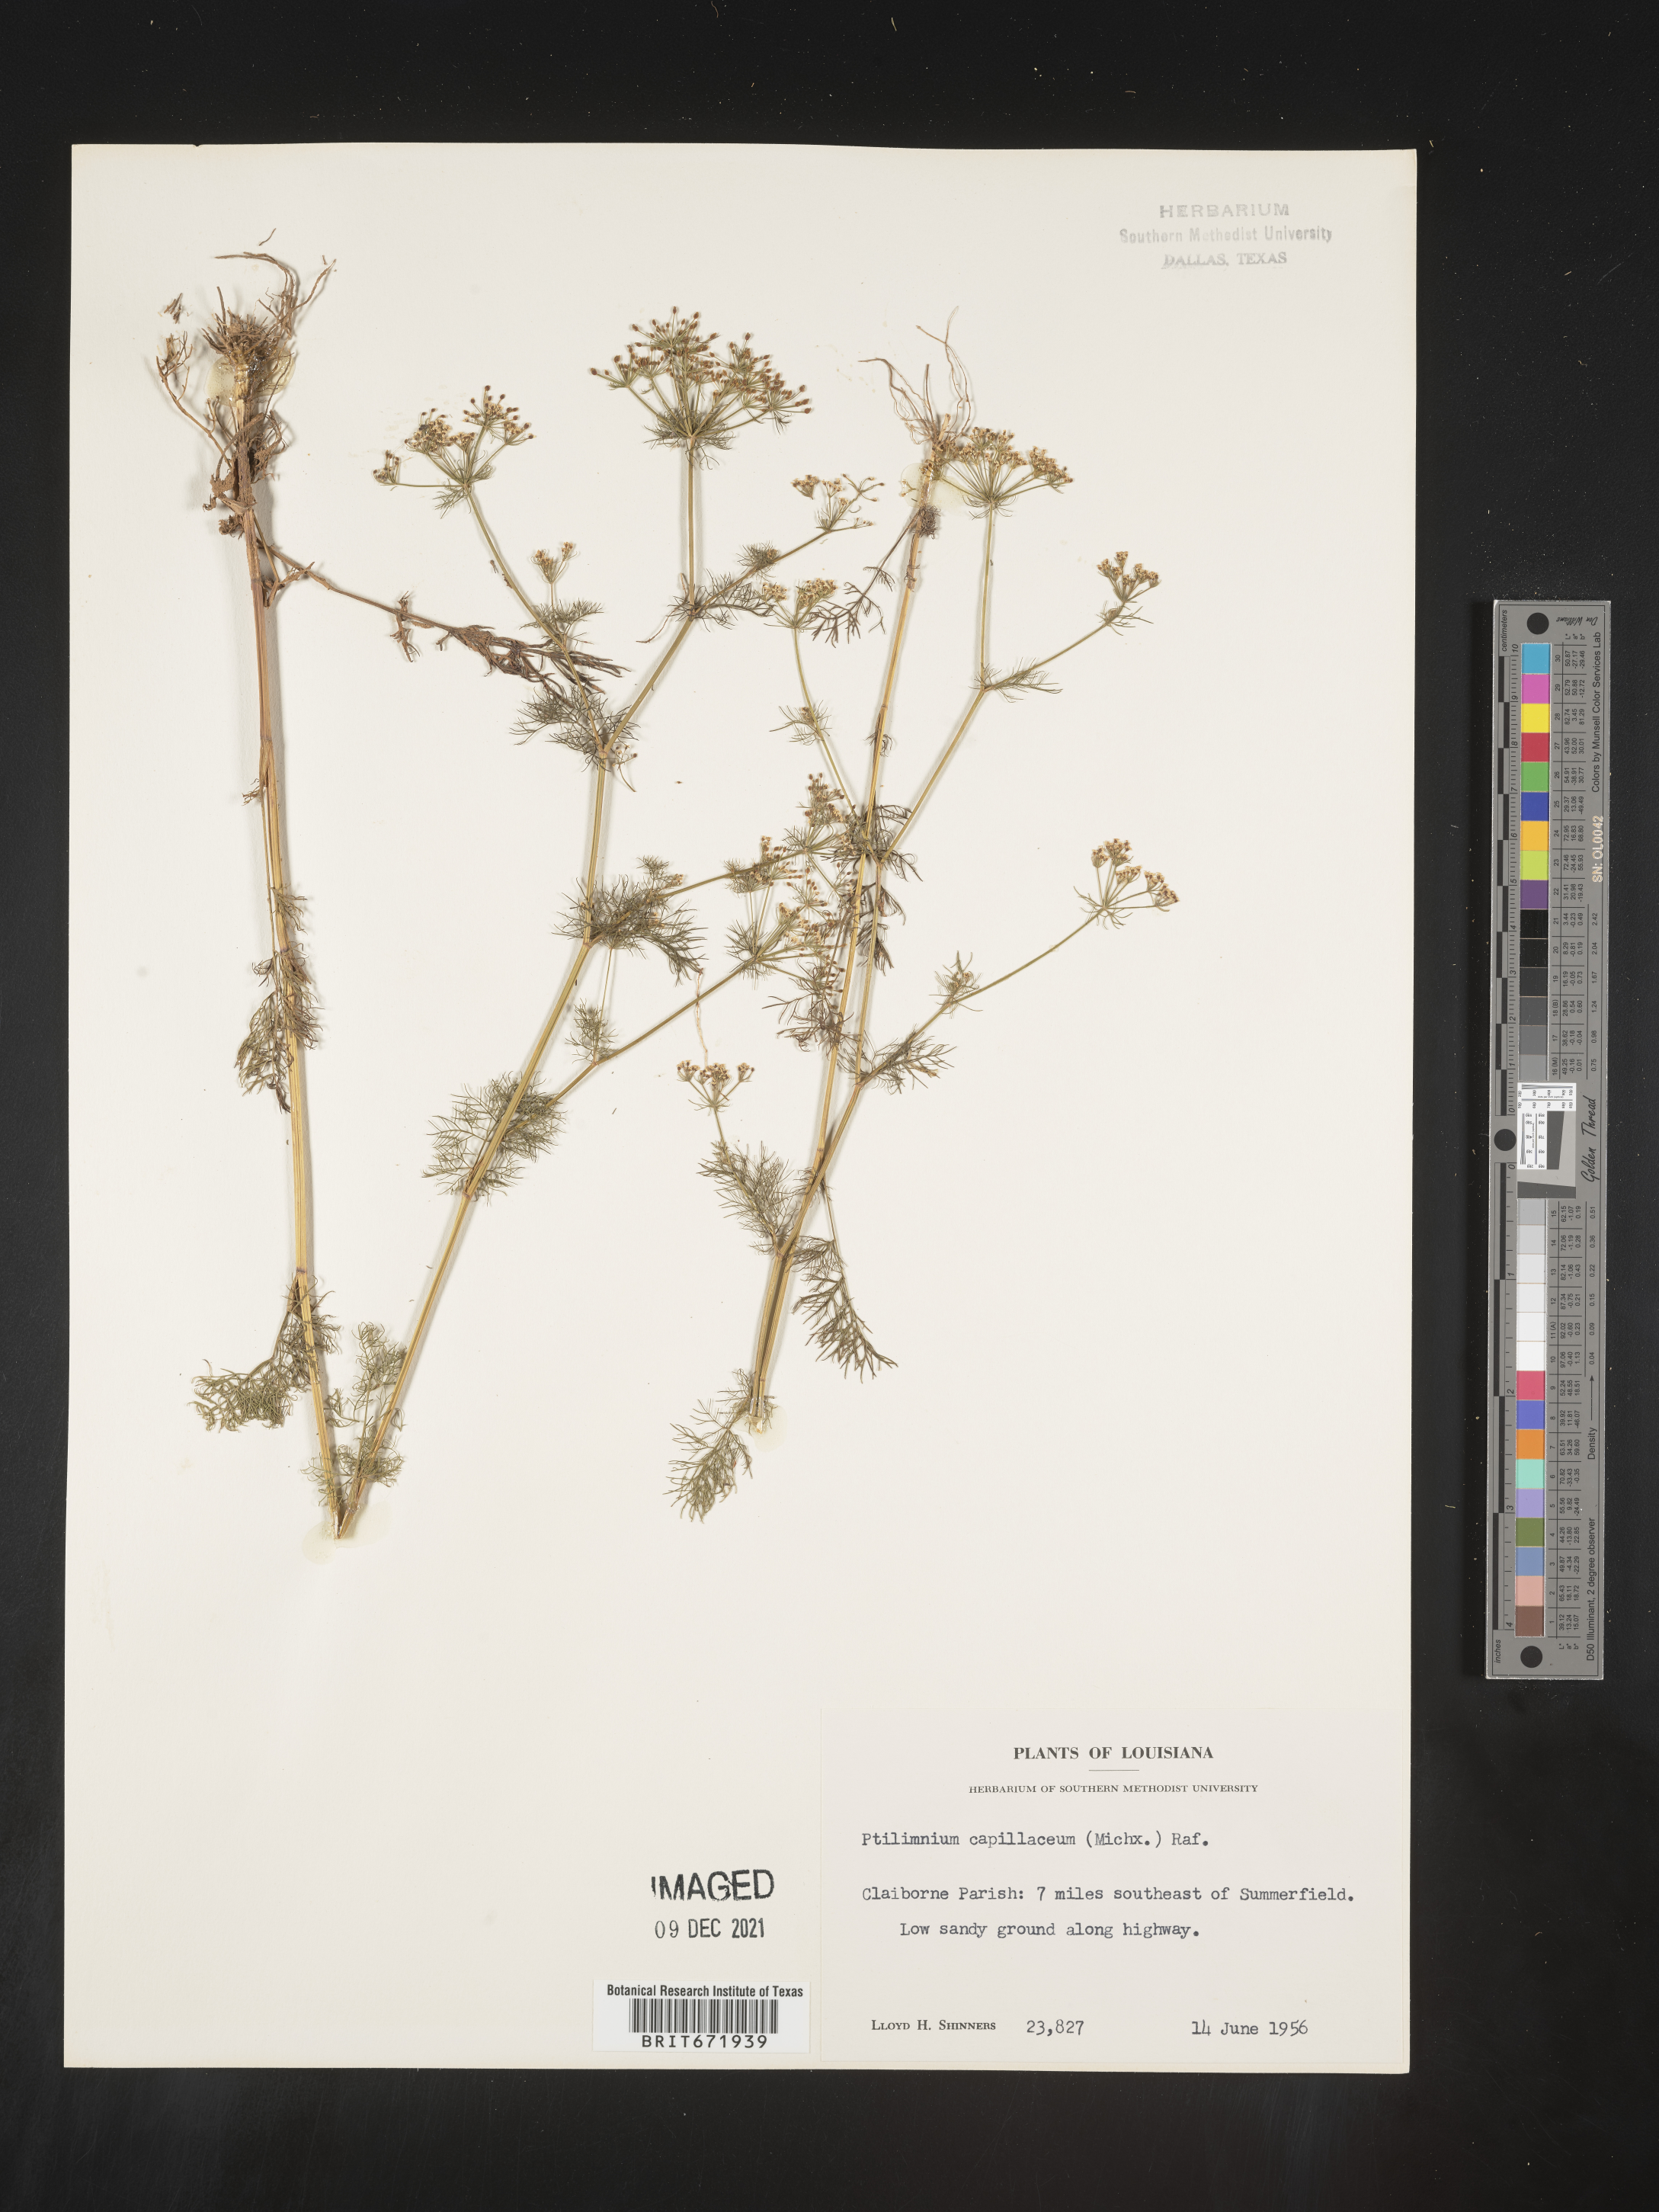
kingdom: Plantae
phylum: Tracheophyta
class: Magnoliopsida
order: Apiales
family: Apiaceae
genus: Ptilimnium
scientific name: Ptilimnium capillaceum
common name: Herbwilliam
